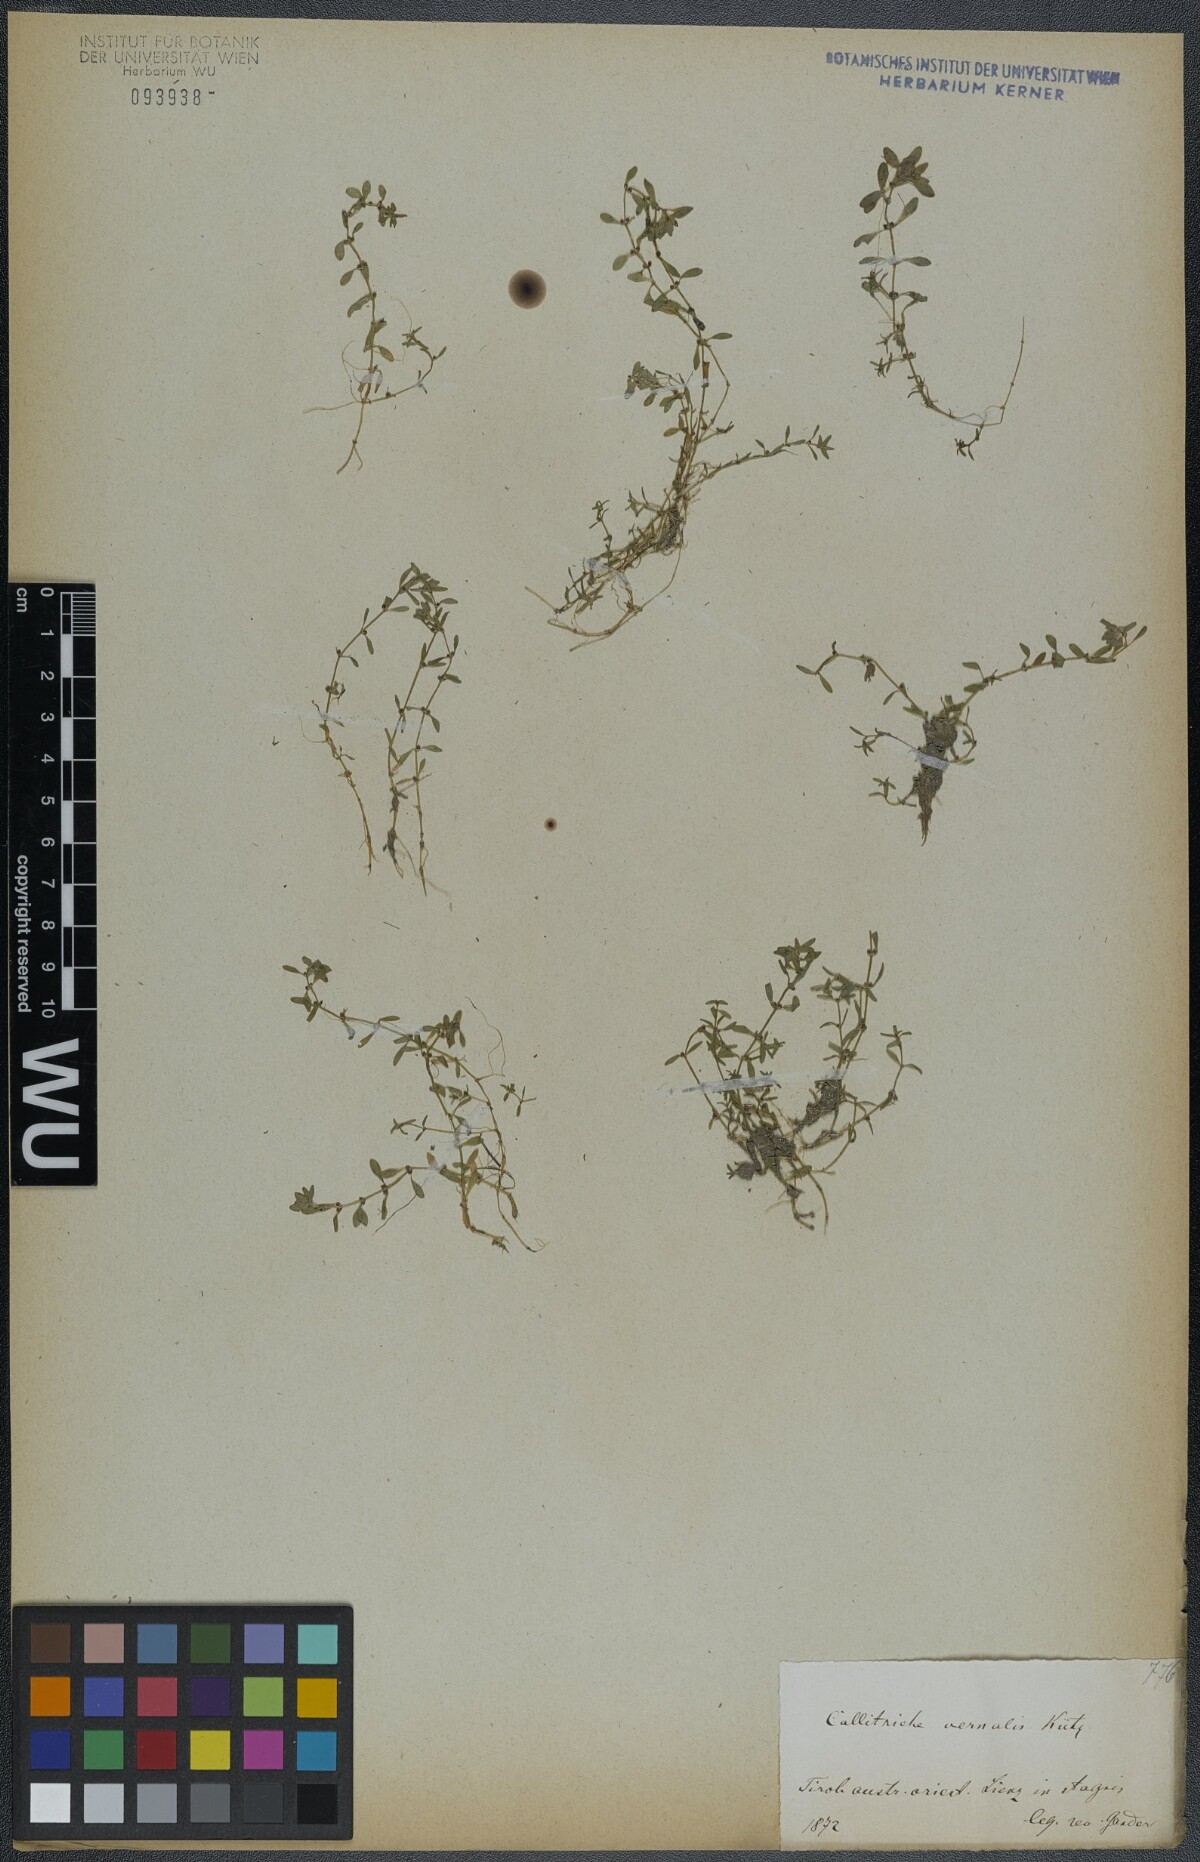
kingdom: Plantae
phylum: Tracheophyta
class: Magnoliopsida
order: Lamiales
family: Plantaginaceae
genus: Callitriche
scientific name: Callitriche palustris
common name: Spring water-starwort
